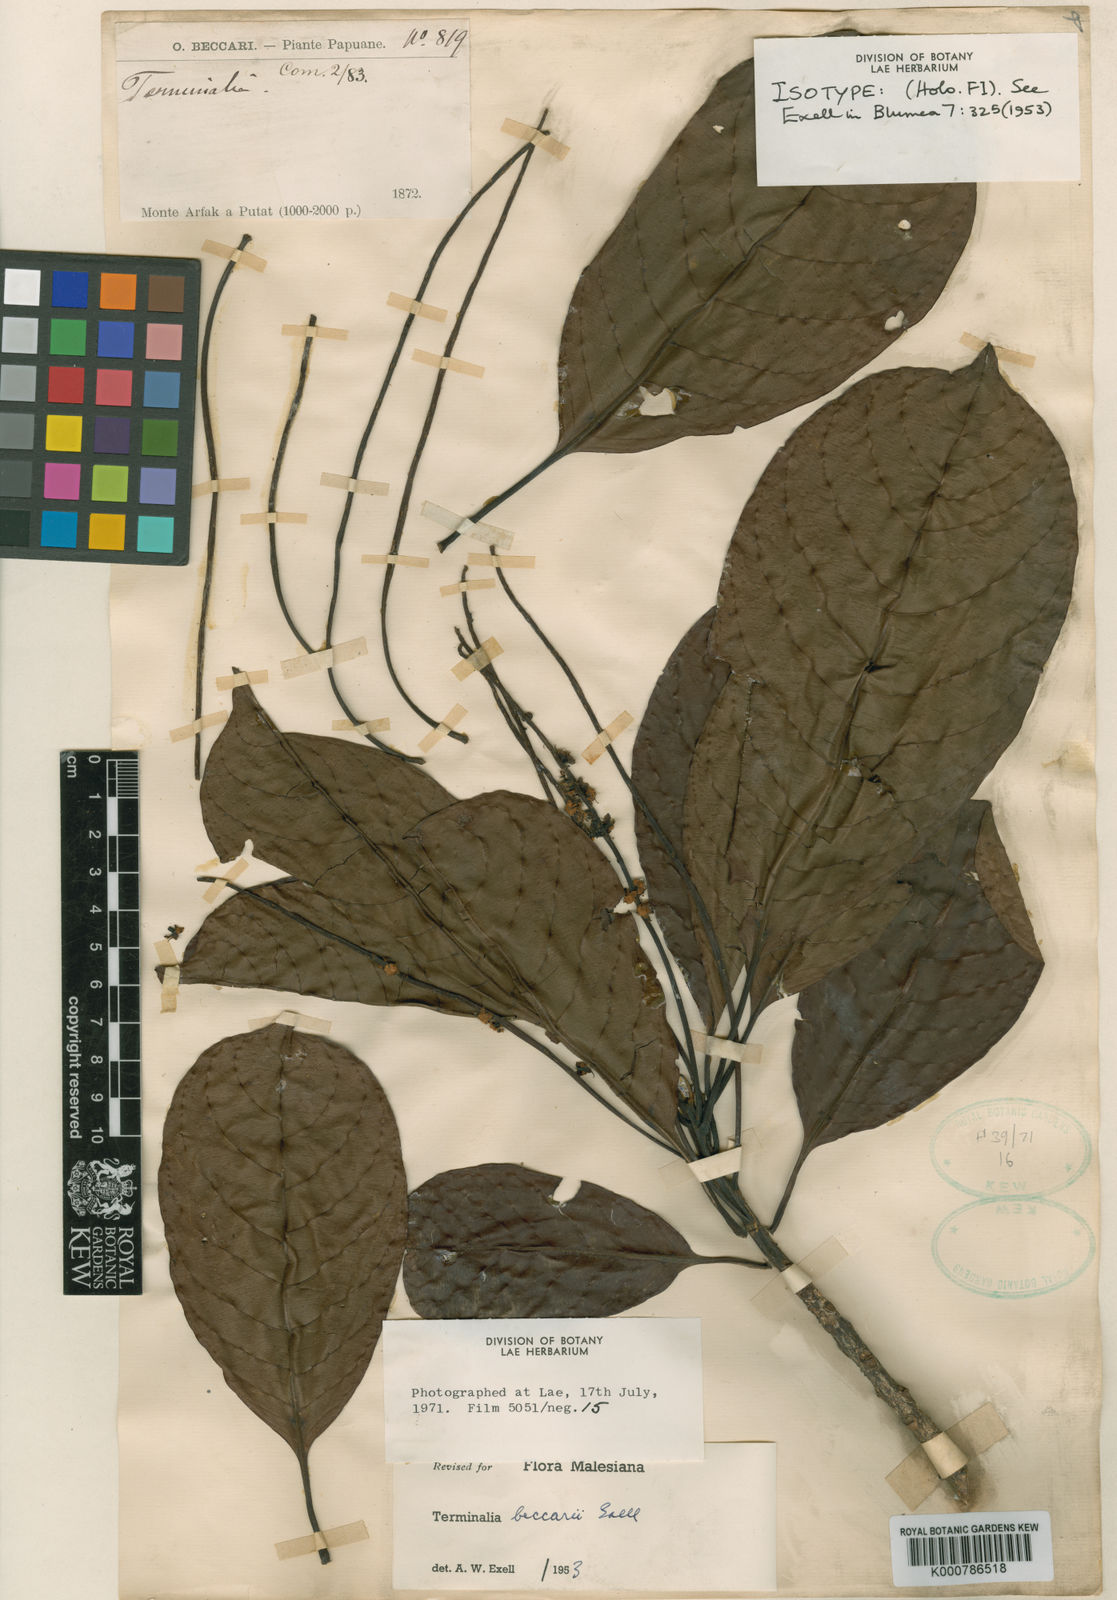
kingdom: Plantae
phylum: Tracheophyta
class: Magnoliopsida
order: Myrtales
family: Combretaceae
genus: Terminalia
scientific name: Terminalia canaliculata
